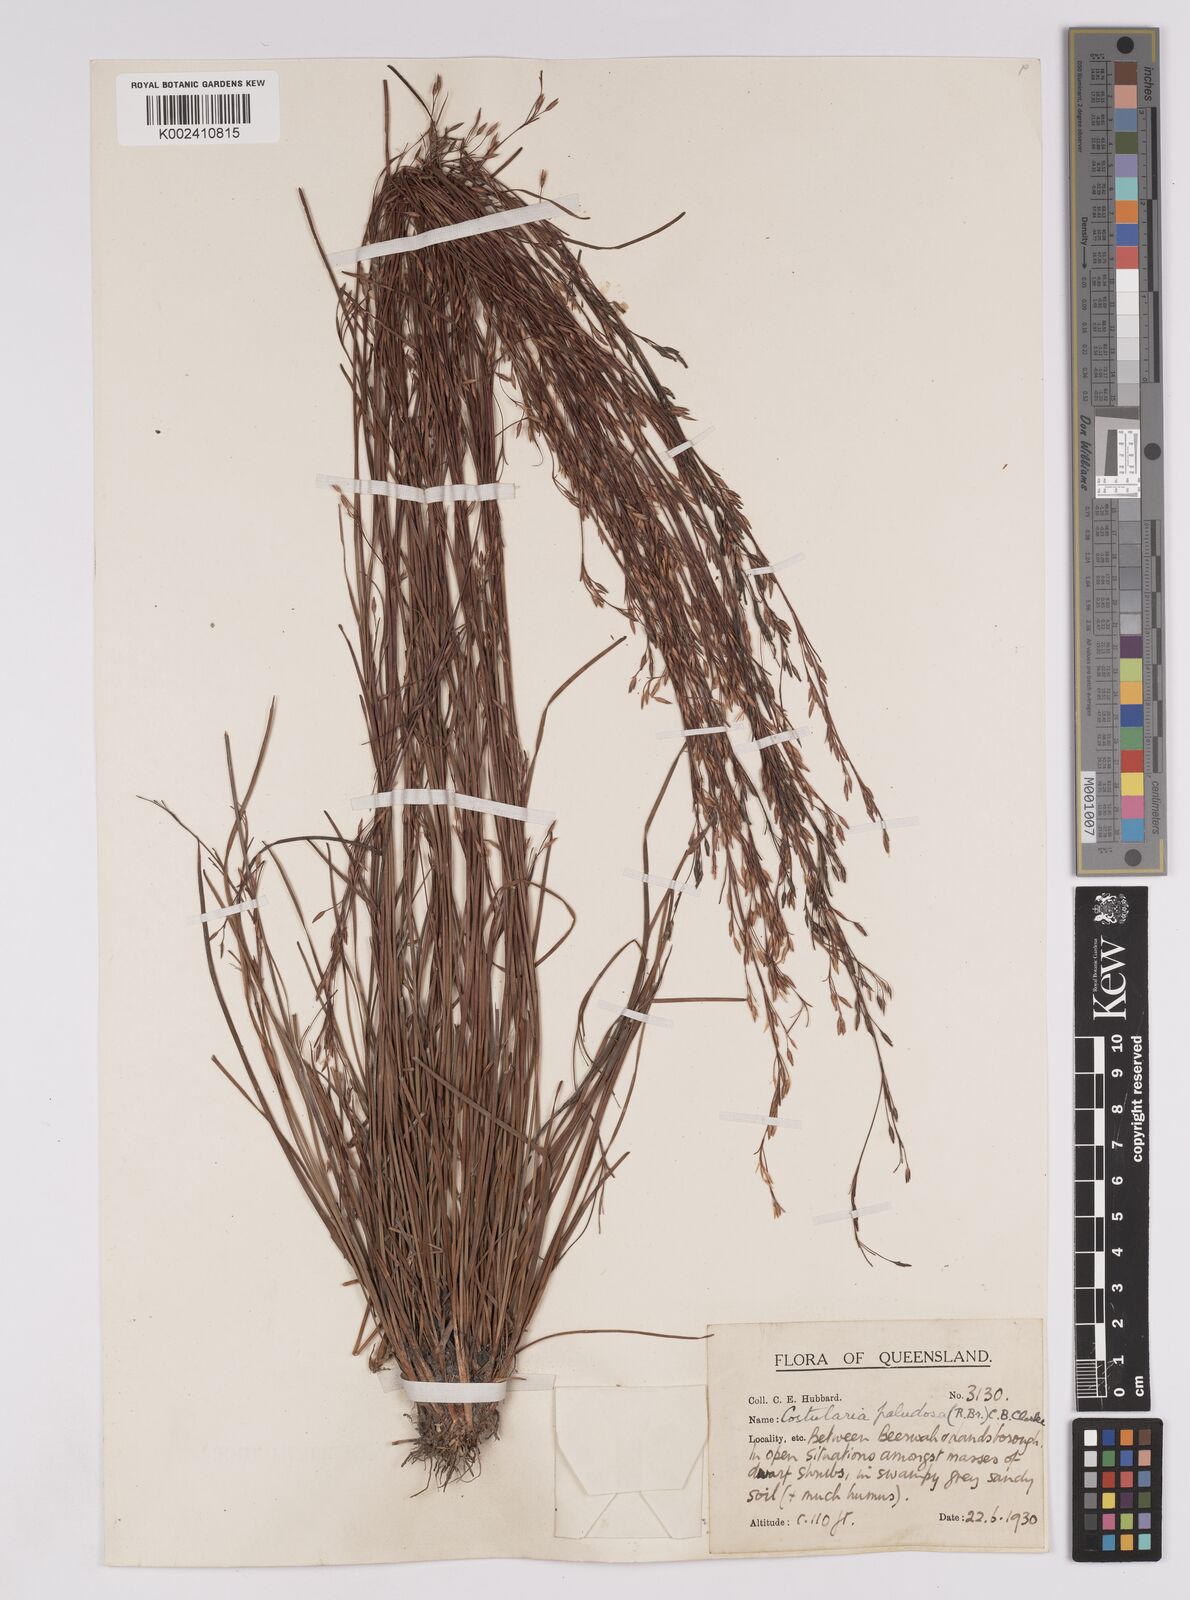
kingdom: Plantae
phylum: Tracheophyta
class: Liliopsida
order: Poales
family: Cyperaceae
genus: Anthelepis
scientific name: Anthelepis paludosa
